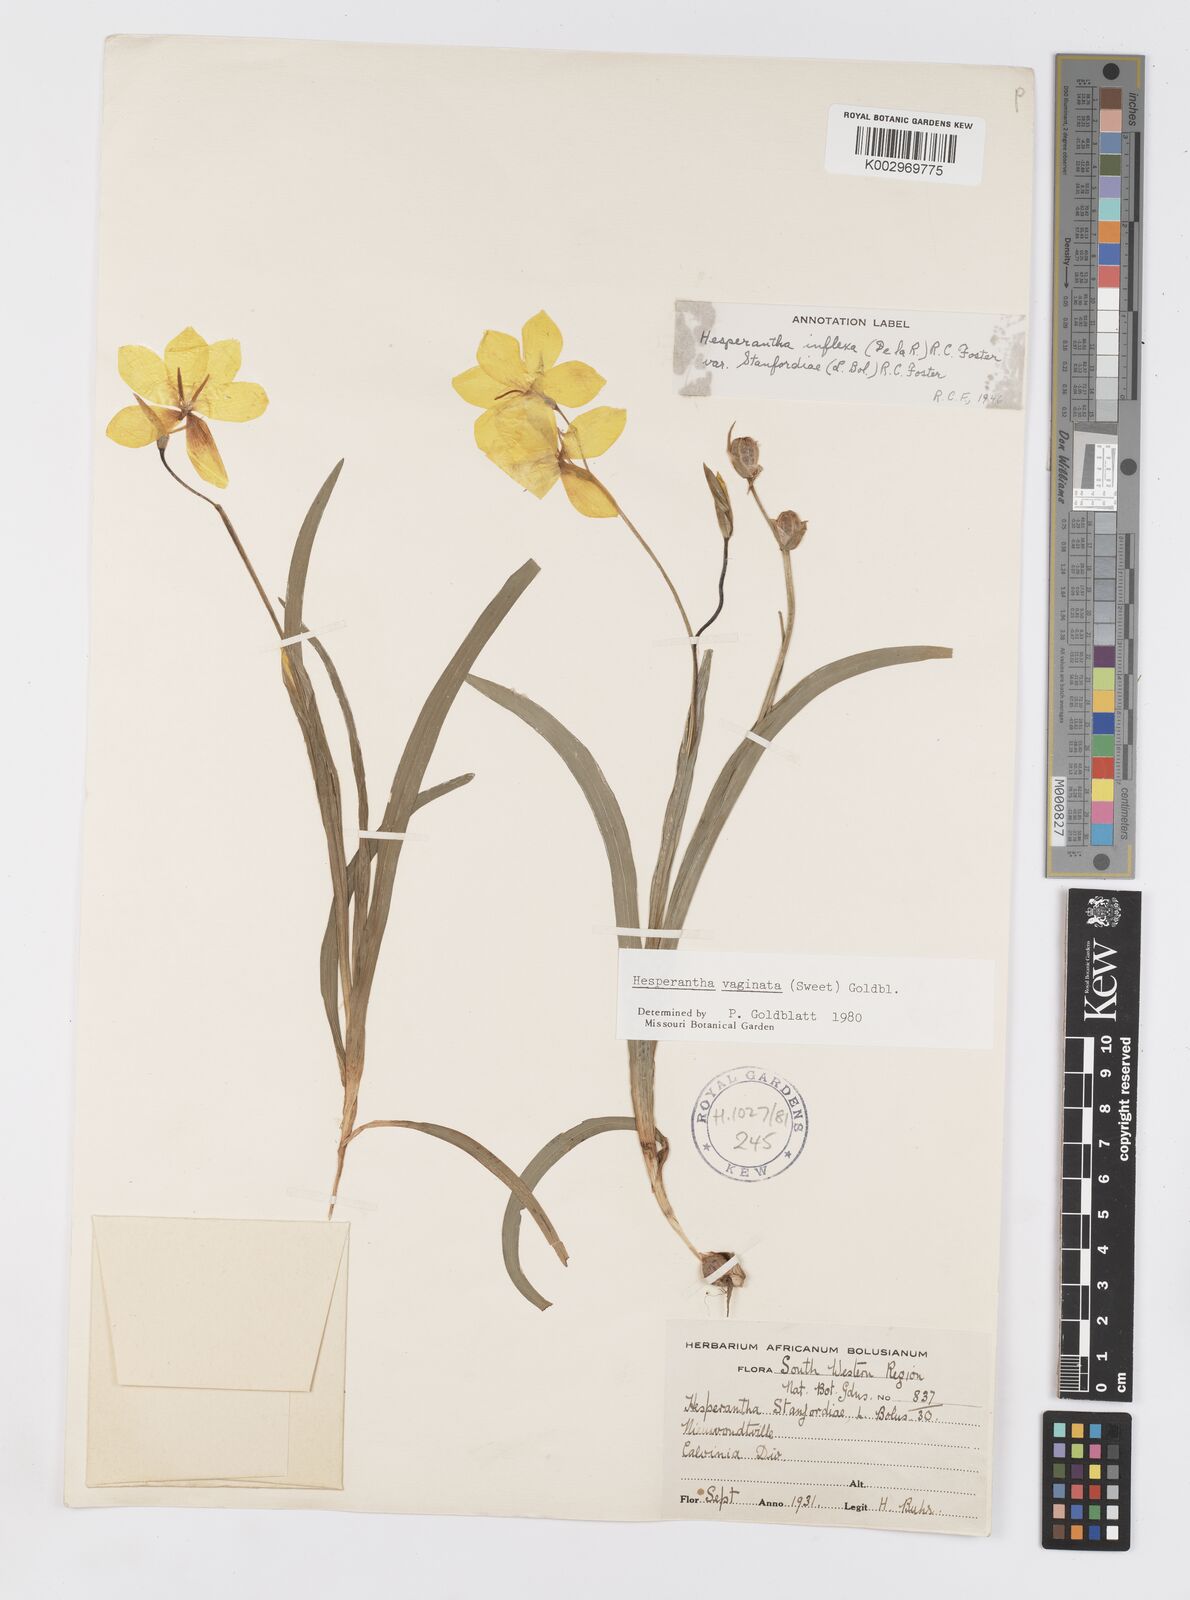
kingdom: Plantae
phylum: Tracheophyta
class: Liliopsida
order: Asparagales
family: Iridaceae
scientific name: Iridaceae
